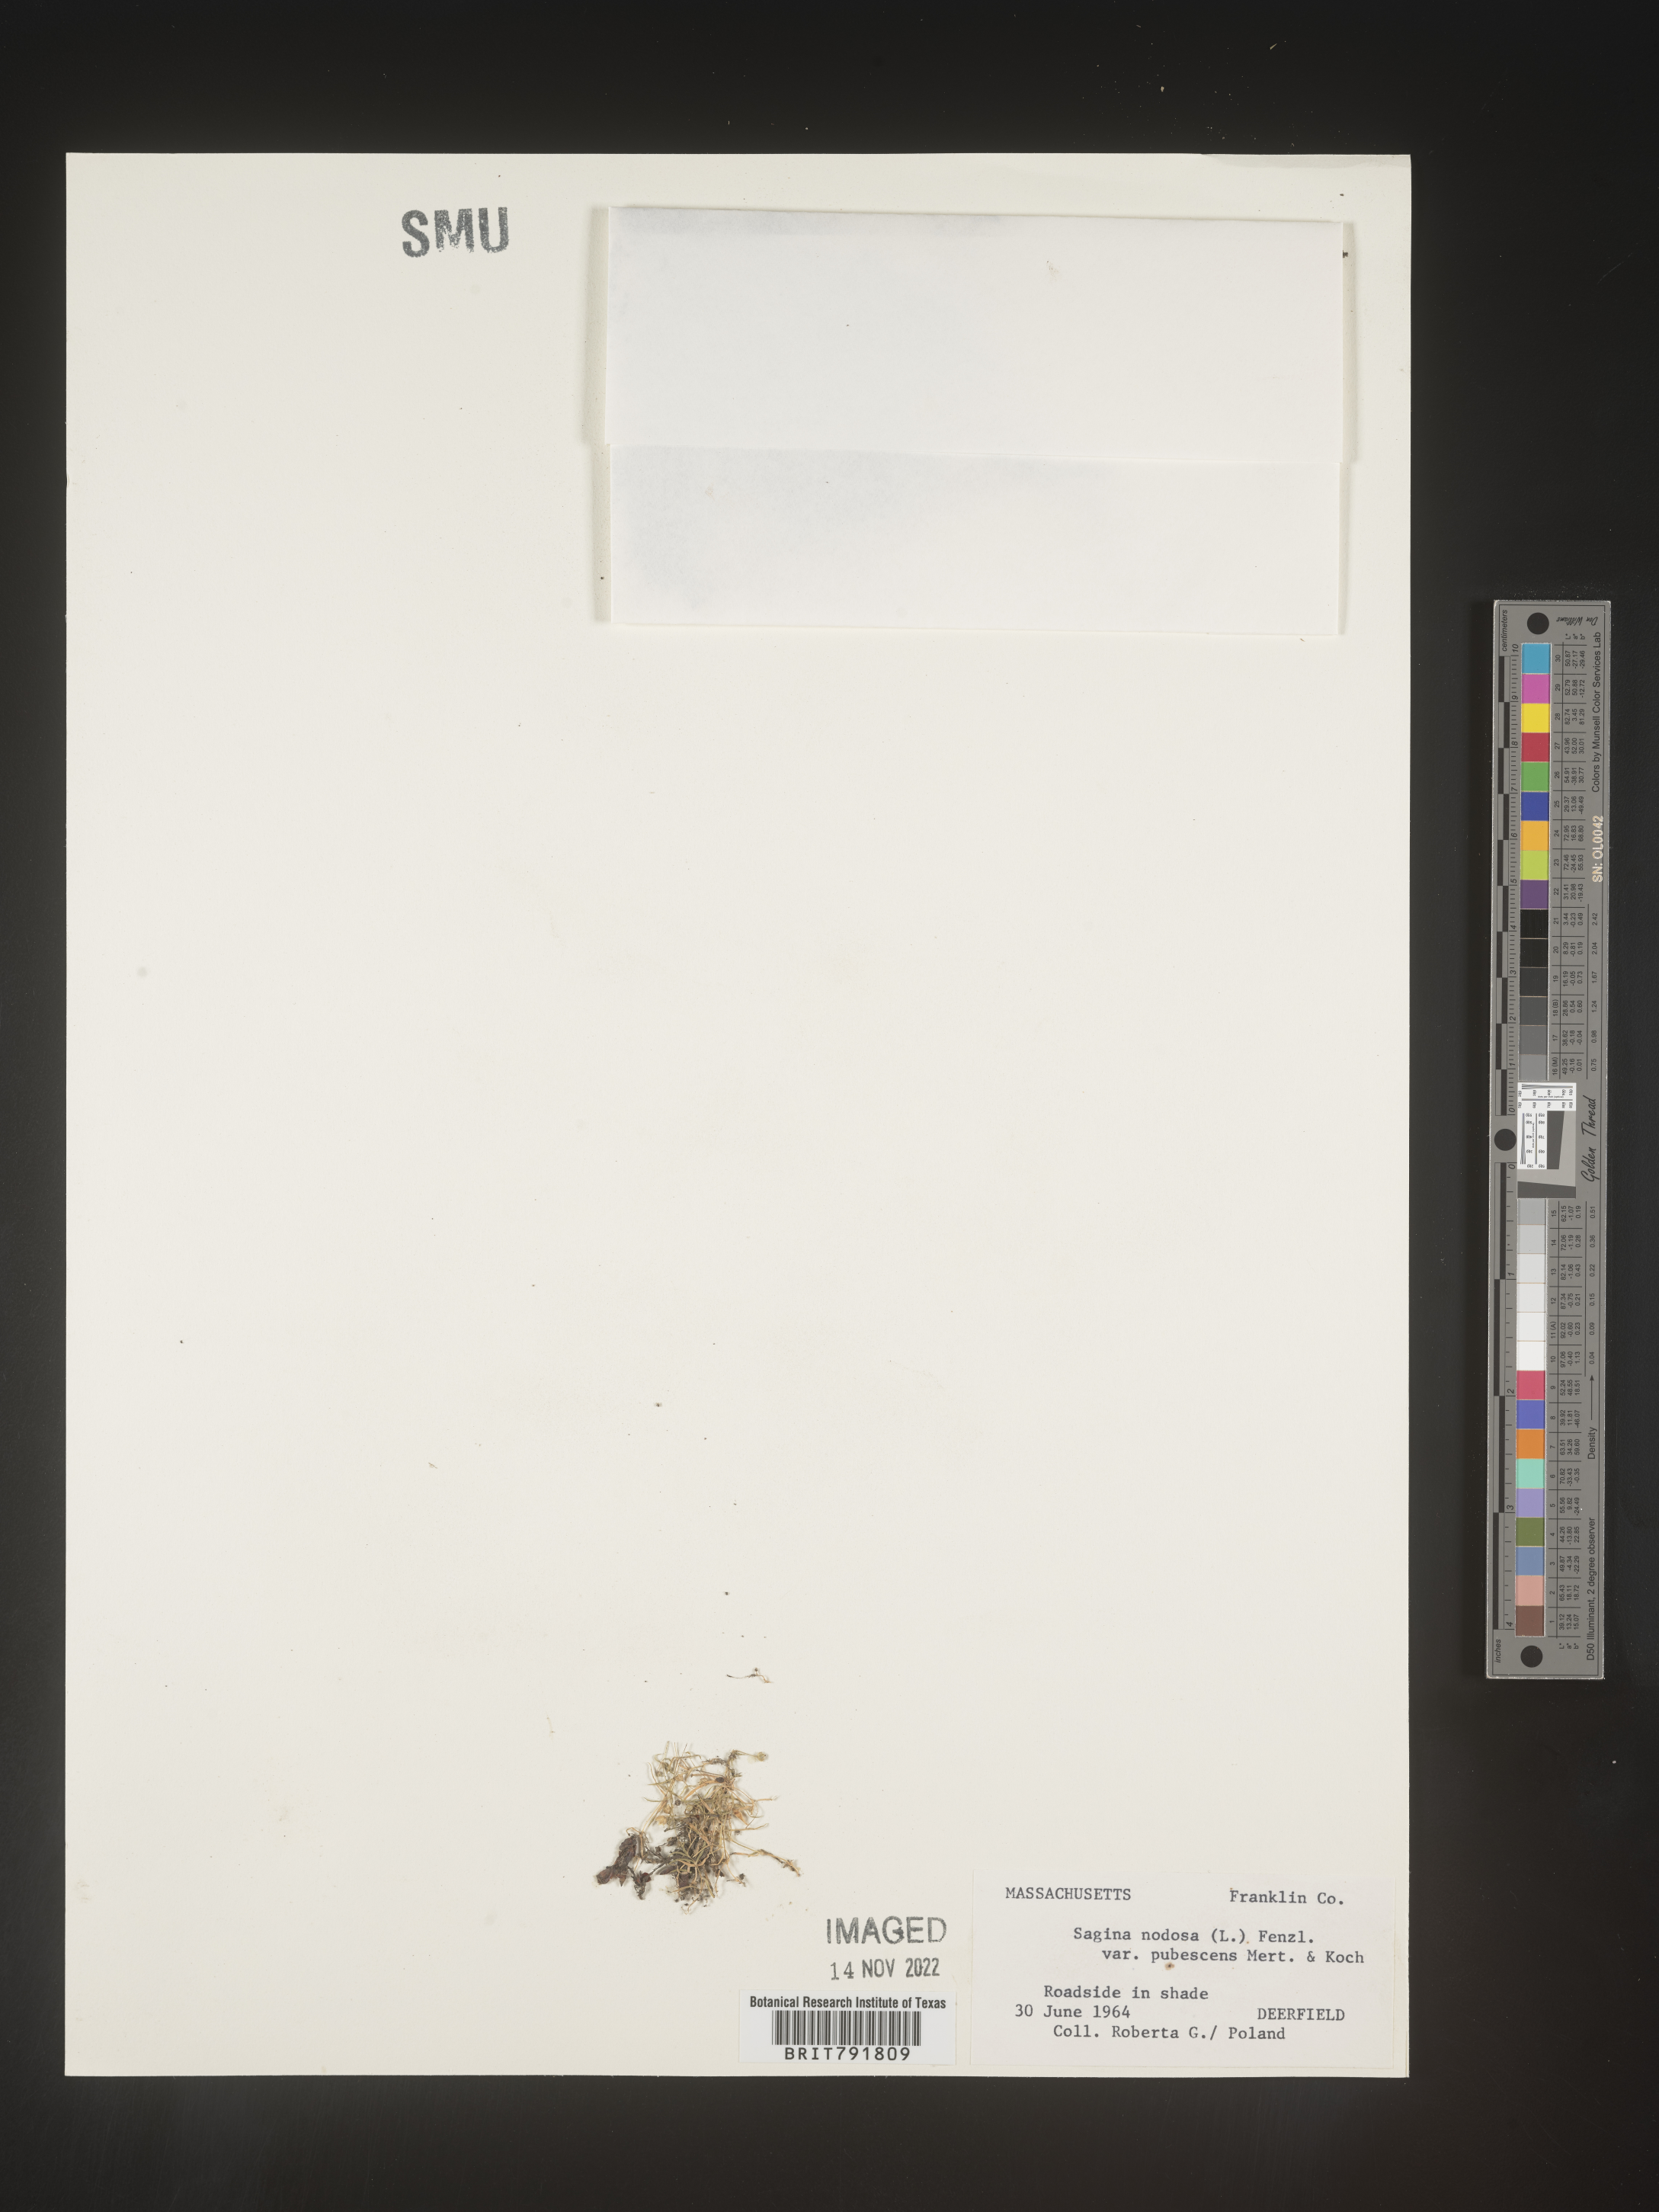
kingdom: Plantae
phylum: Tracheophyta
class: Magnoliopsida
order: Caryophyllales
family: Caryophyllaceae
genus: Sagina
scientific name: Sagina
